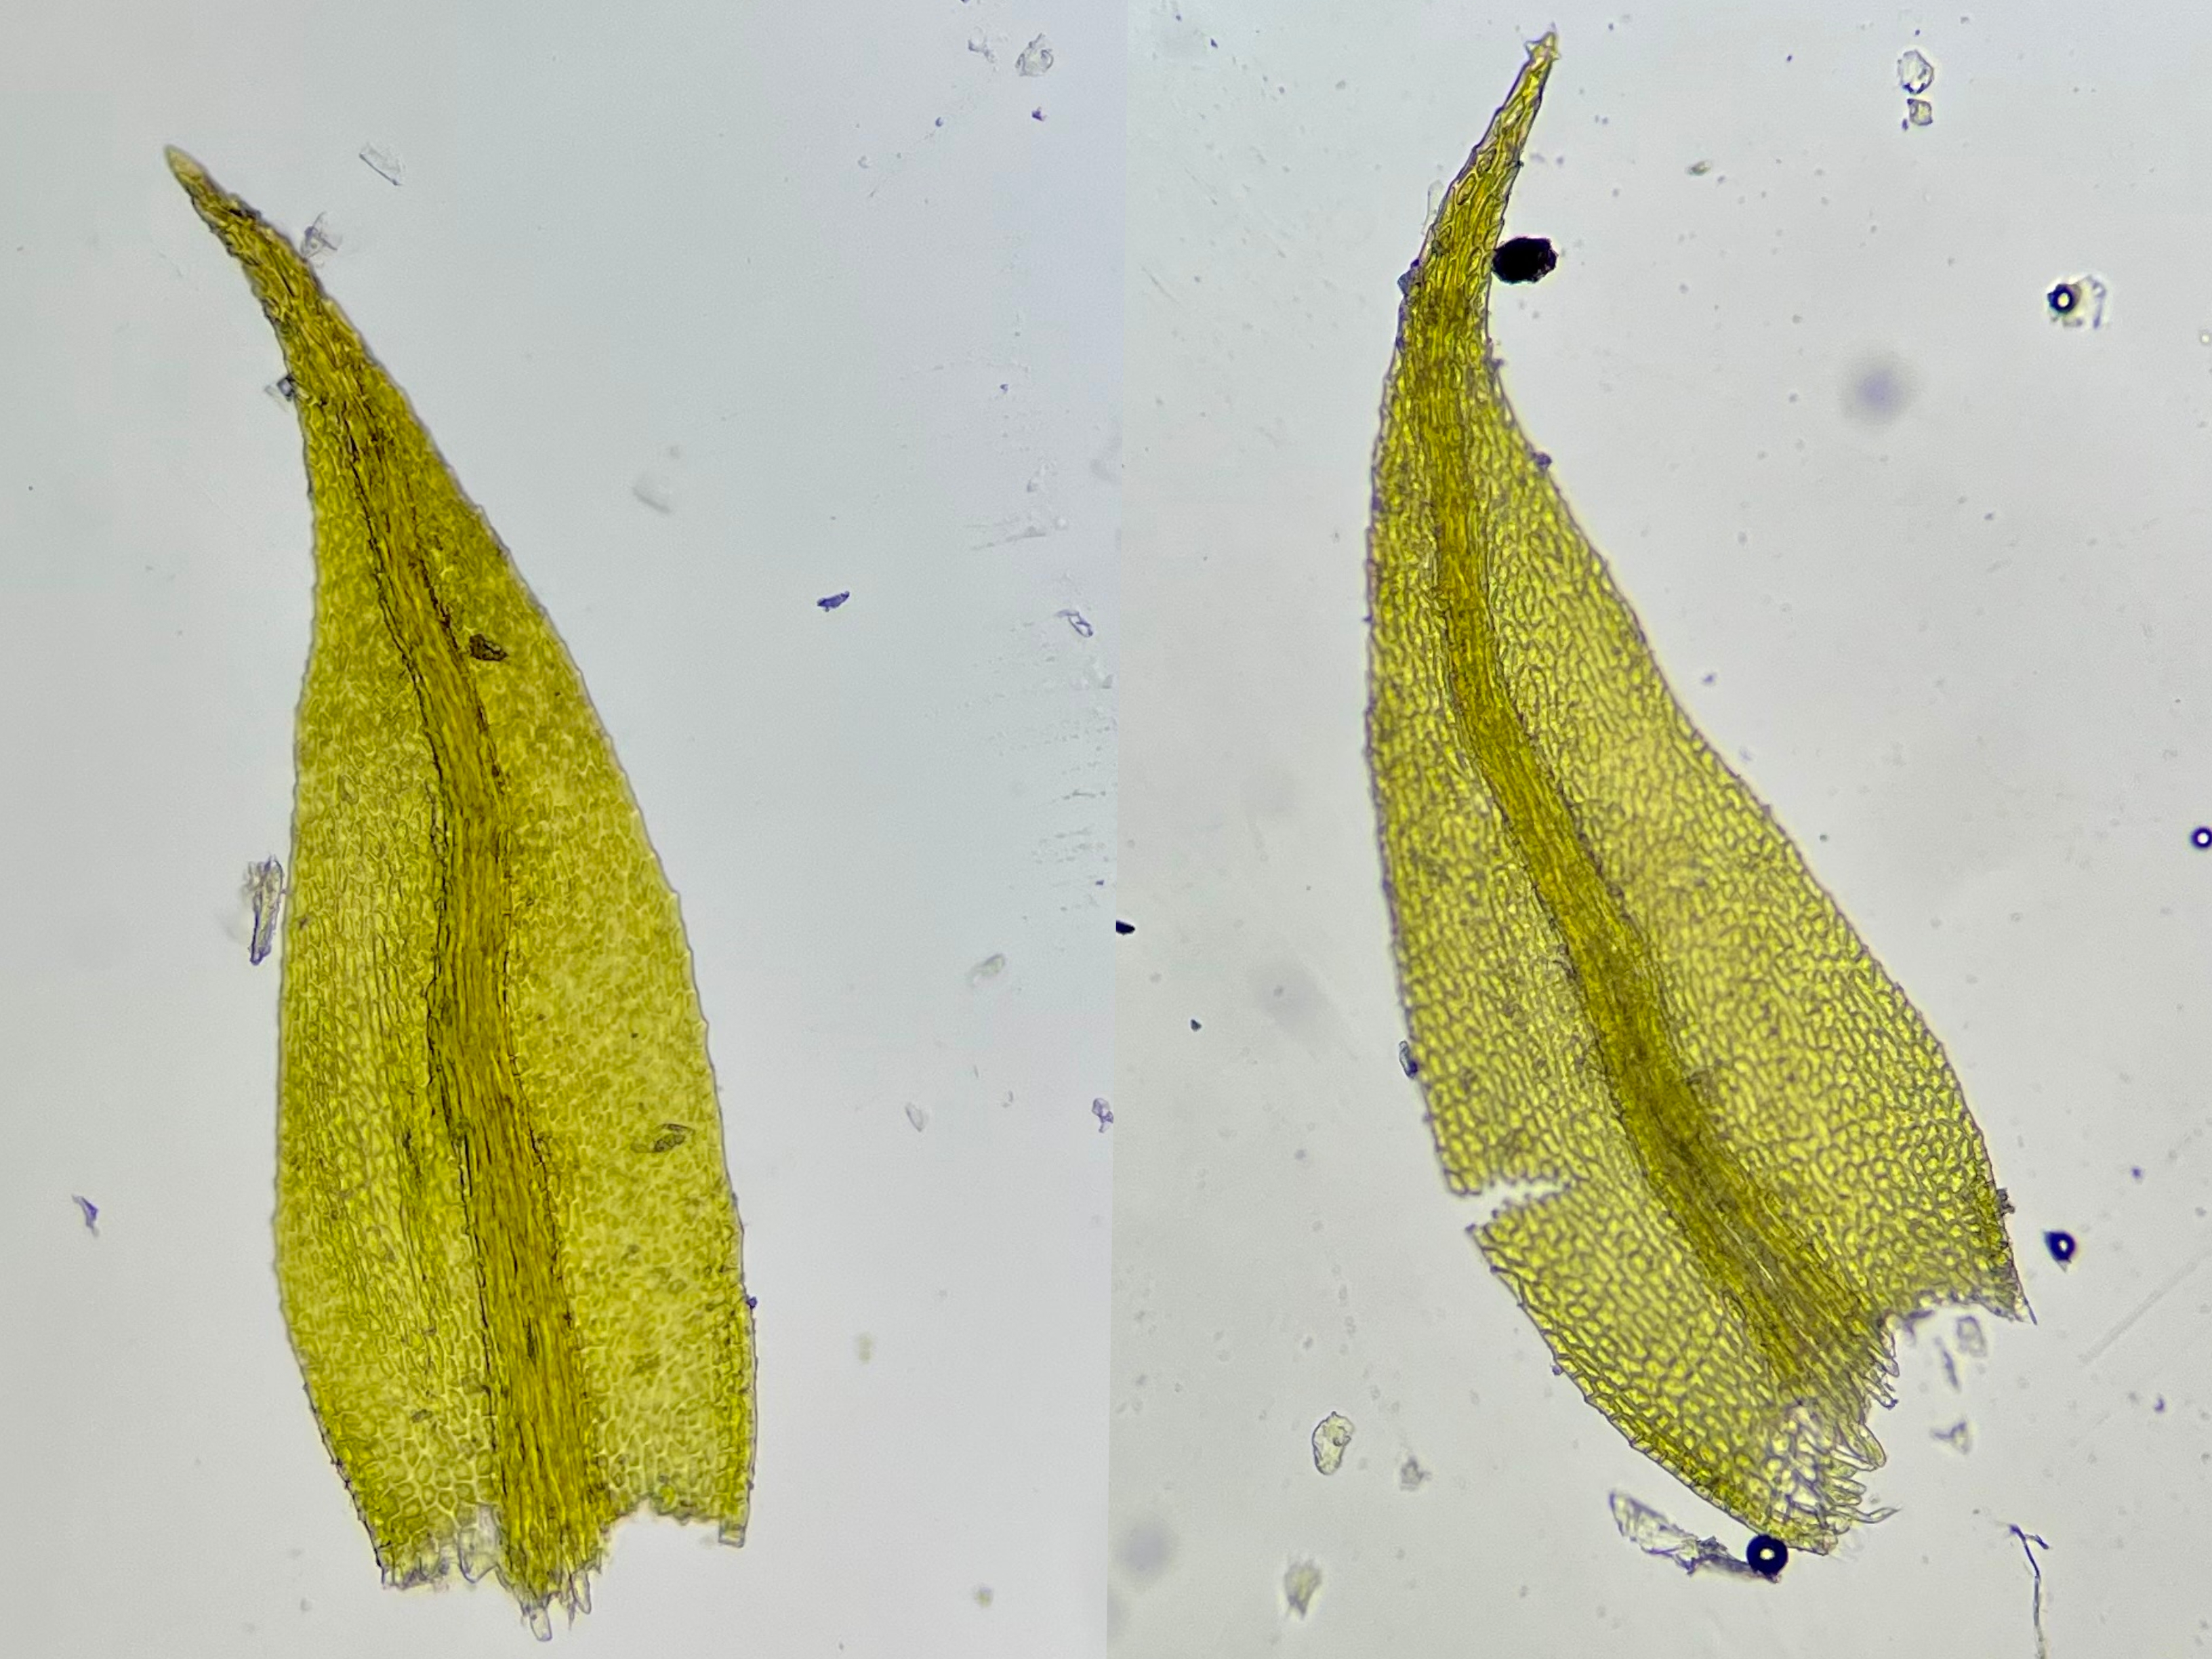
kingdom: Plantae
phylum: Bryophyta
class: Bryopsida
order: Hypnales
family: Amblystegiaceae
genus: Hygroamblystegium
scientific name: Hygroamblystegium tenax
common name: Stiv vandkrybmos
